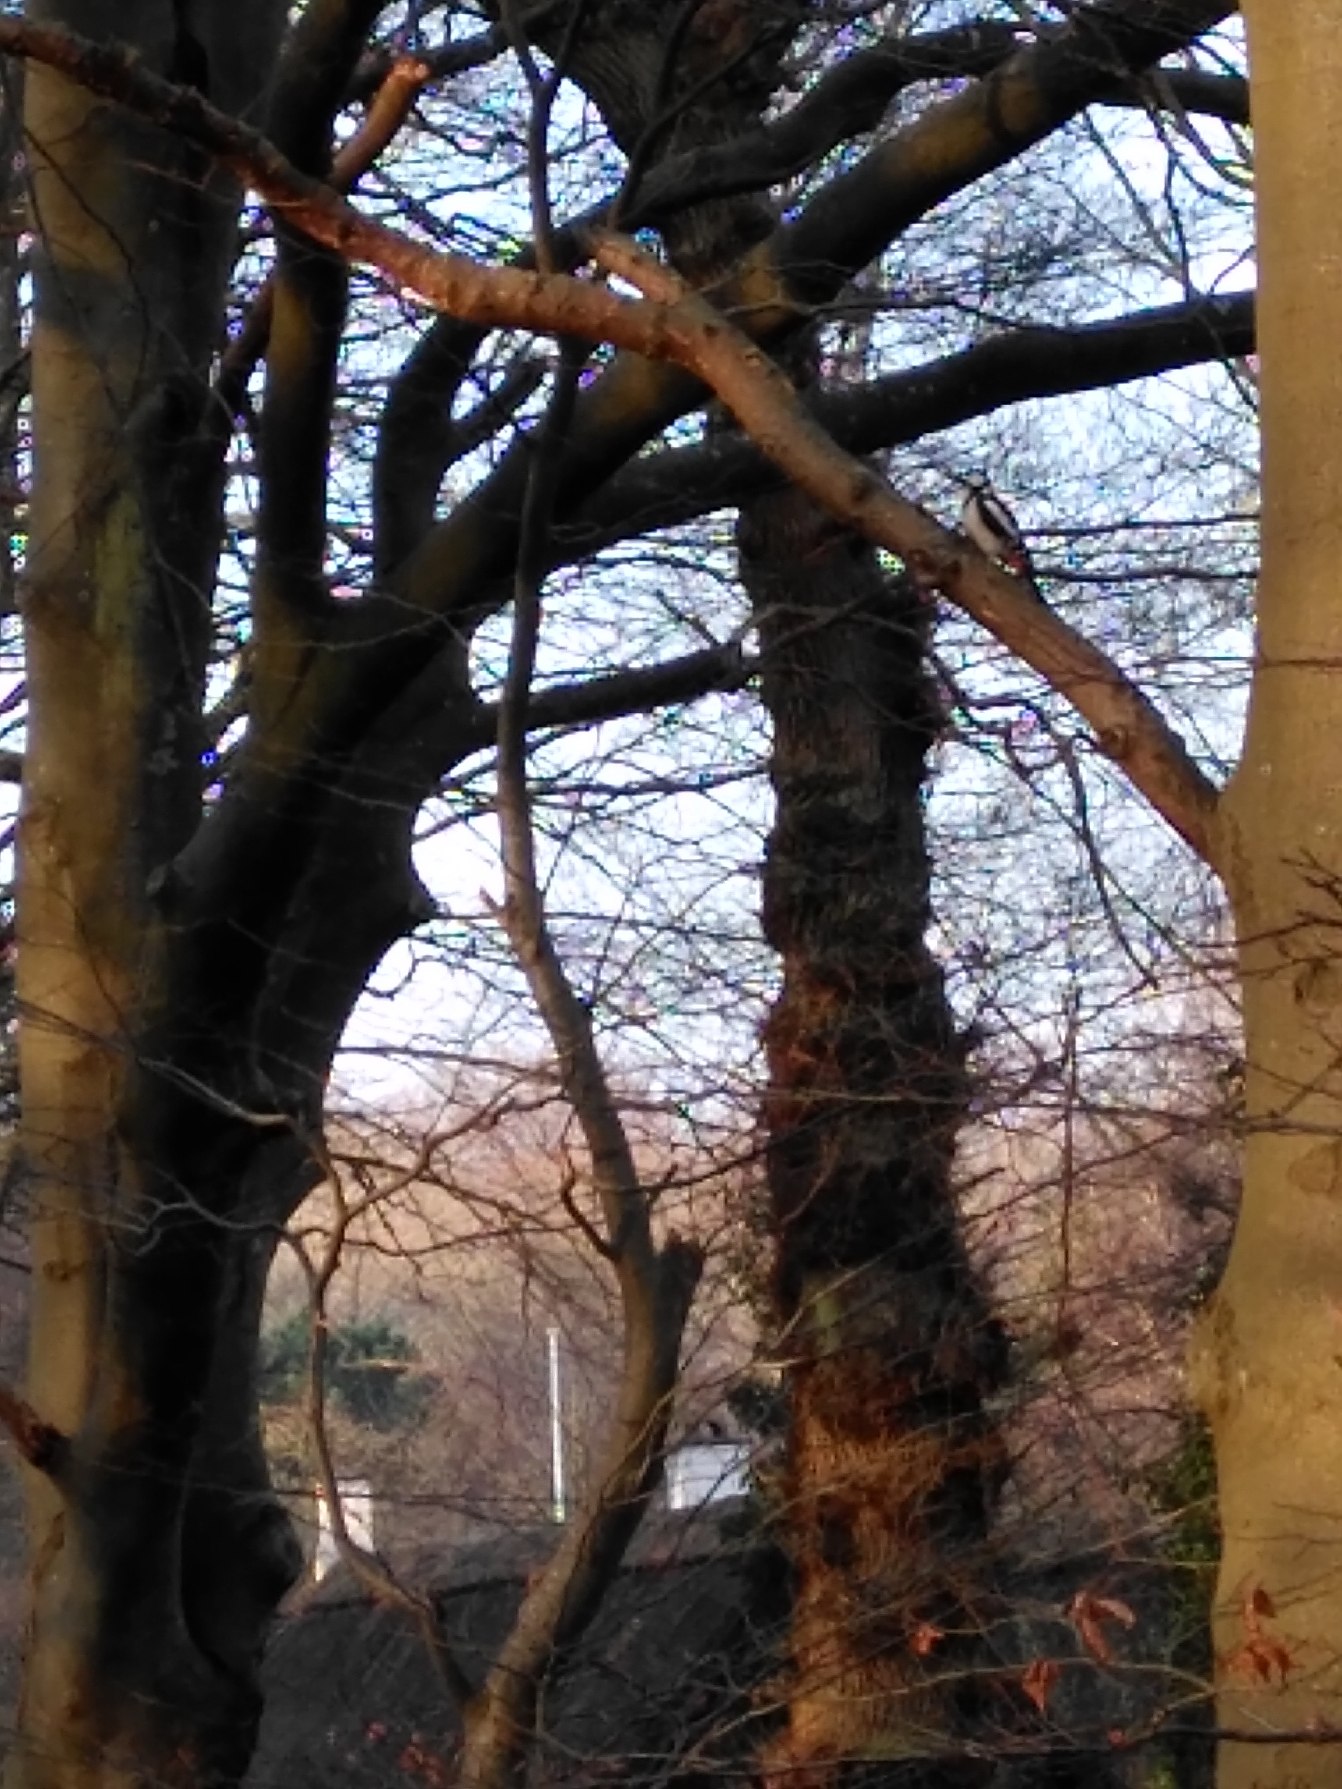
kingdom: Animalia
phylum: Chordata
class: Aves
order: Piciformes
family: Picidae
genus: Dendrocopos
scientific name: Dendrocopos major
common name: Stor flagspætte
